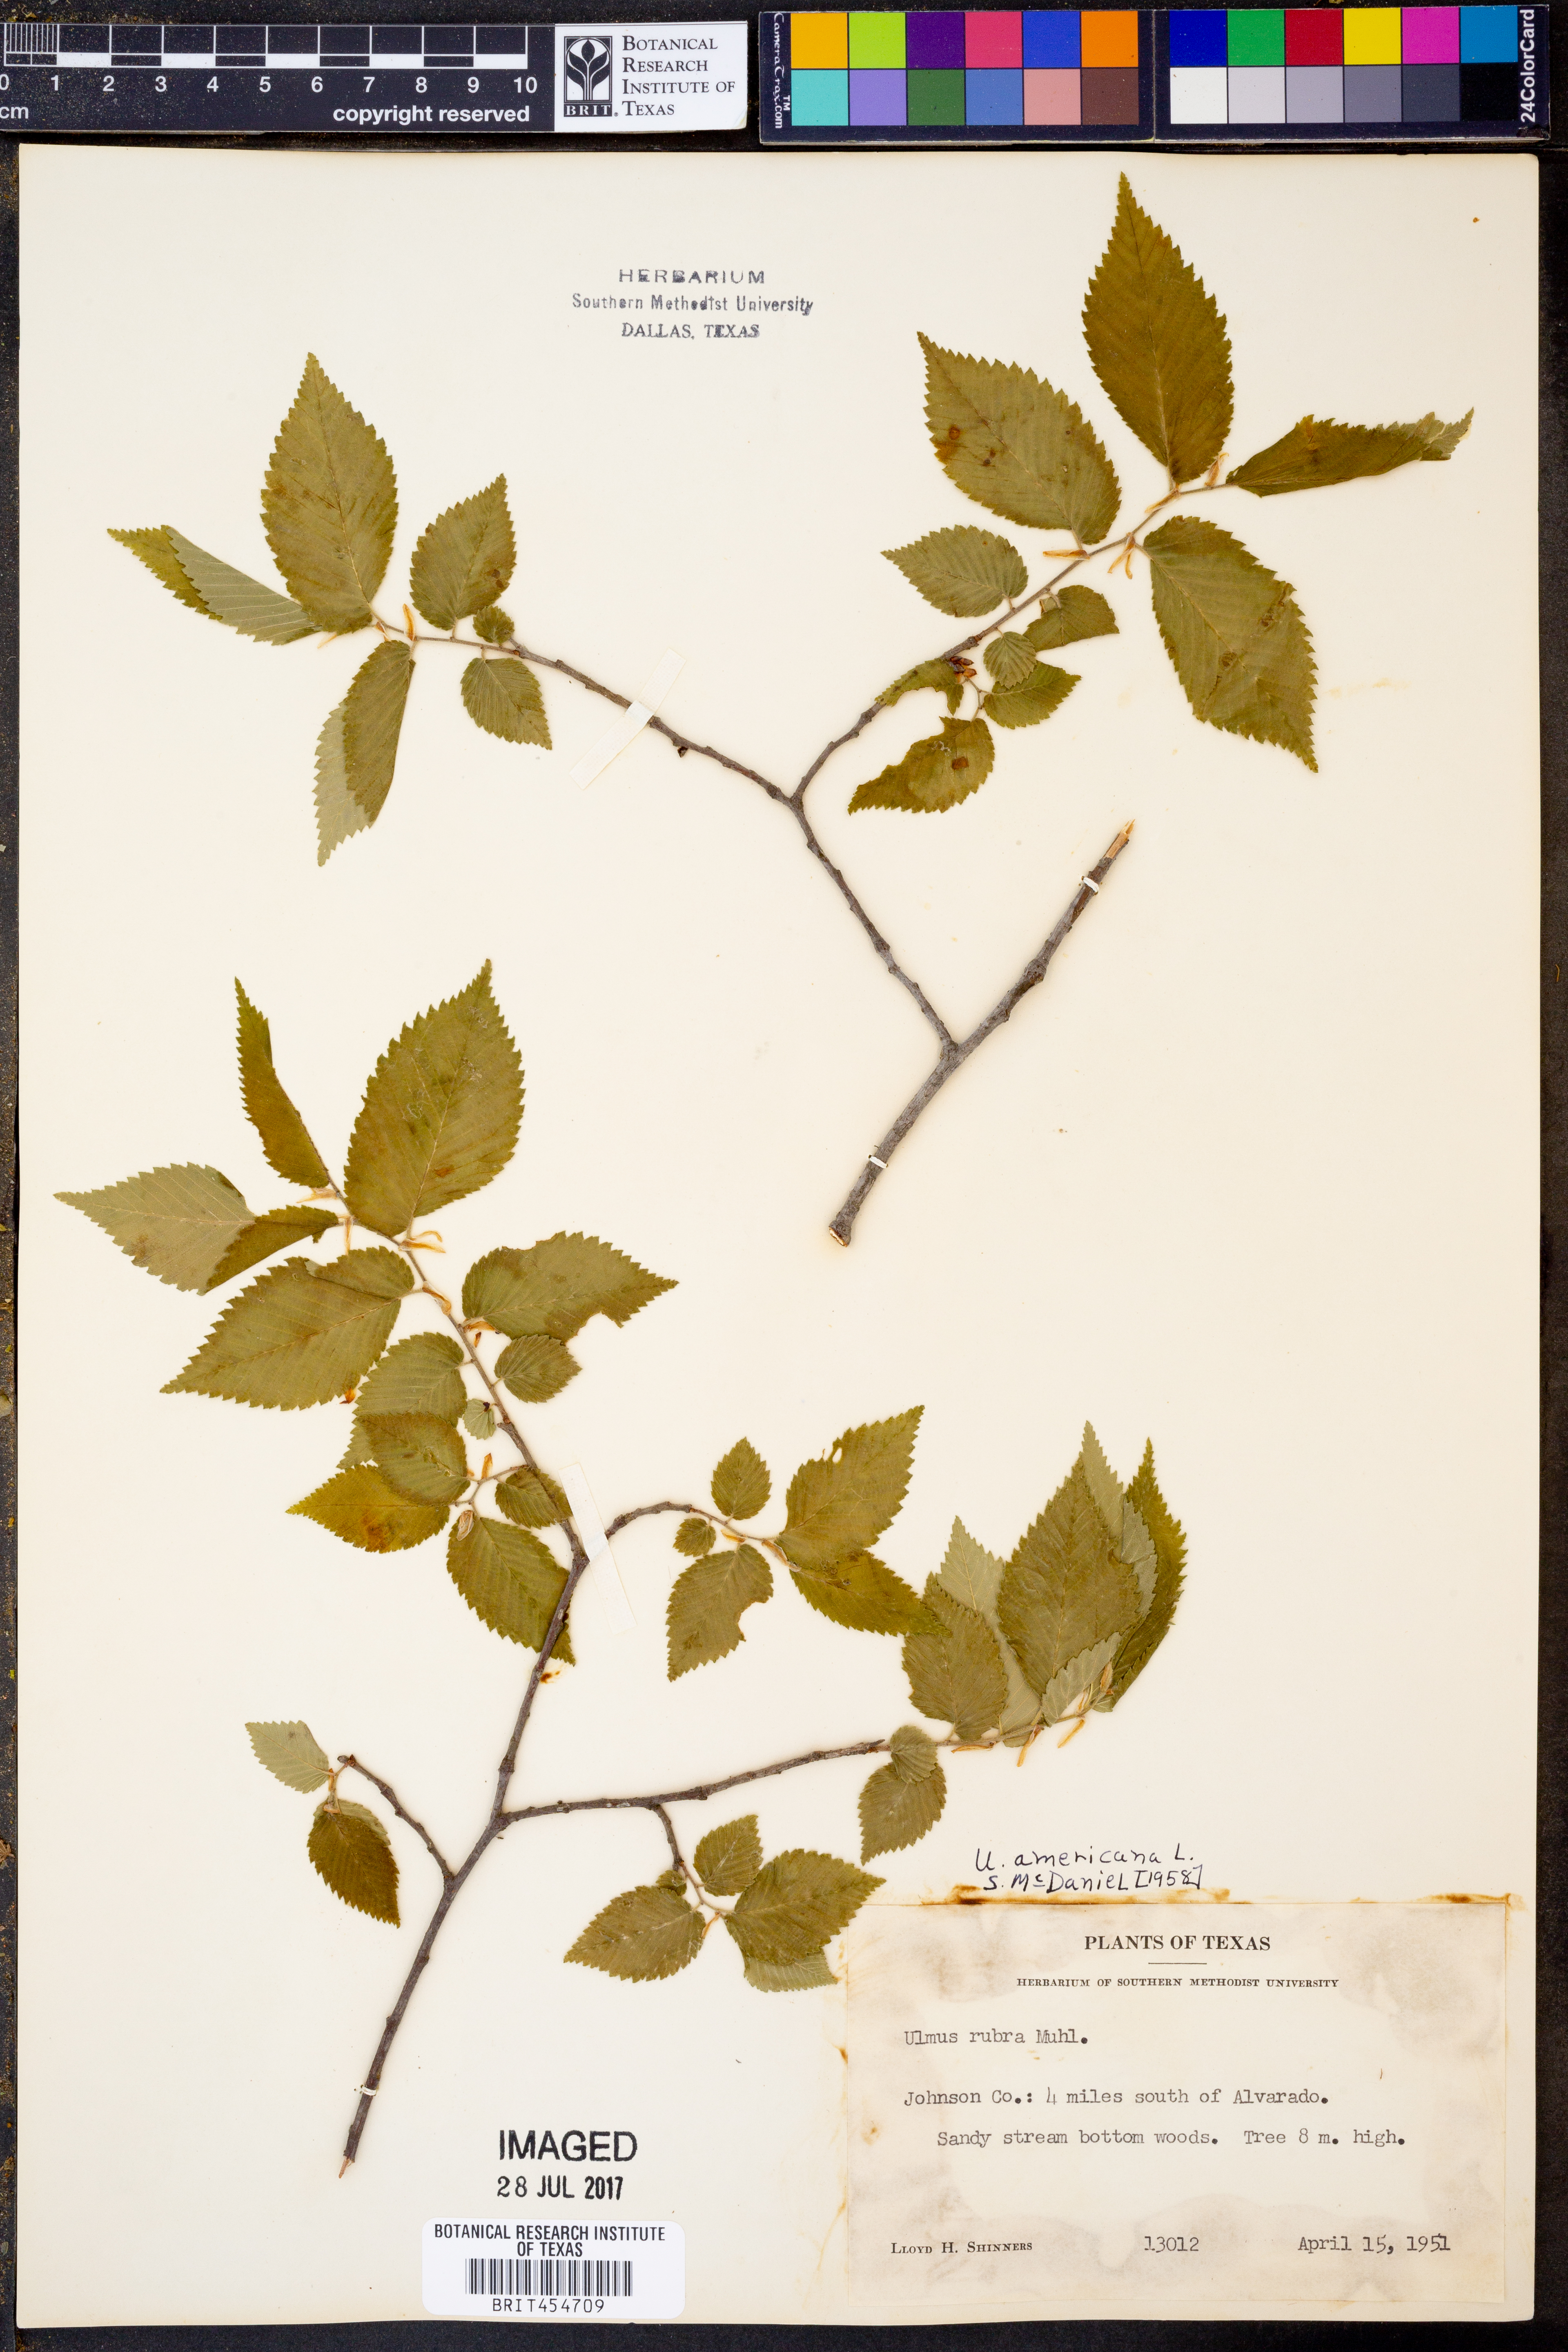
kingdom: Plantae
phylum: Tracheophyta
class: Magnoliopsida
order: Rosales
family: Ulmaceae
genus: Ulmus
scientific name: Ulmus americana
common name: American elm
